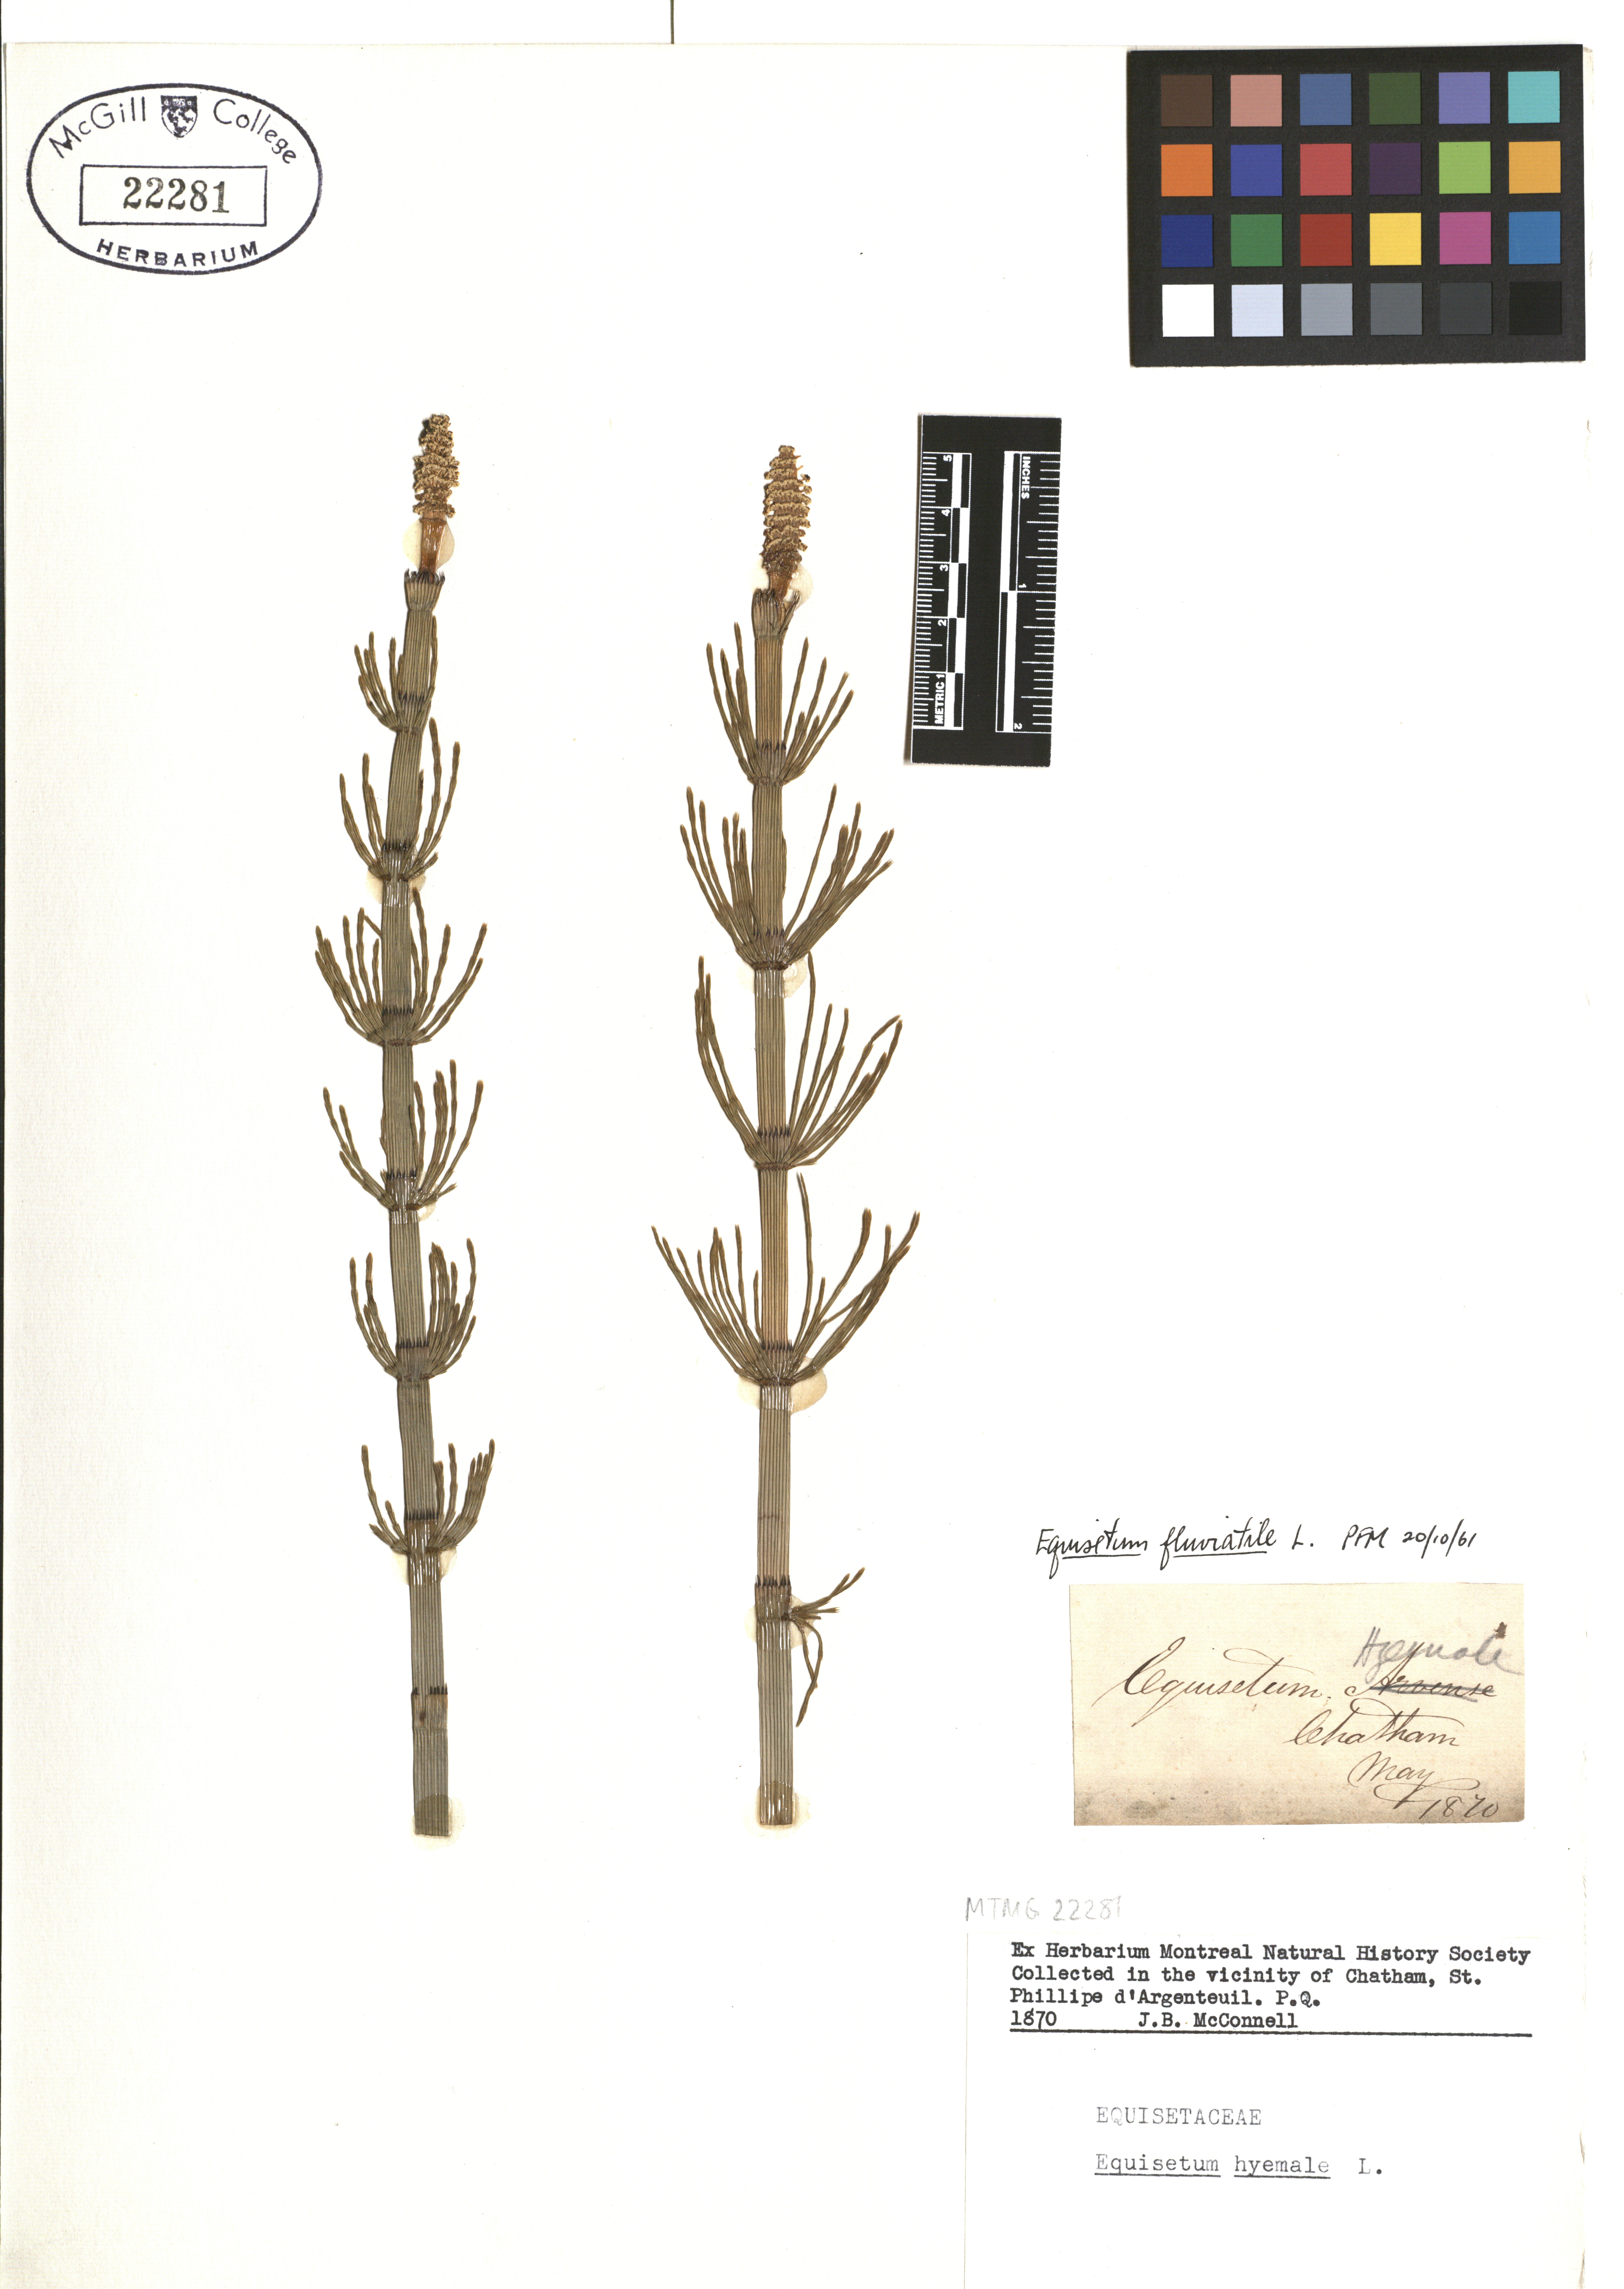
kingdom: Plantae
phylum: Tracheophyta
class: Polypodiopsida
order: Equisetales
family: Equisetaceae
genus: Equisetum
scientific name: Equisetum fluviatile
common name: Water horsetail
